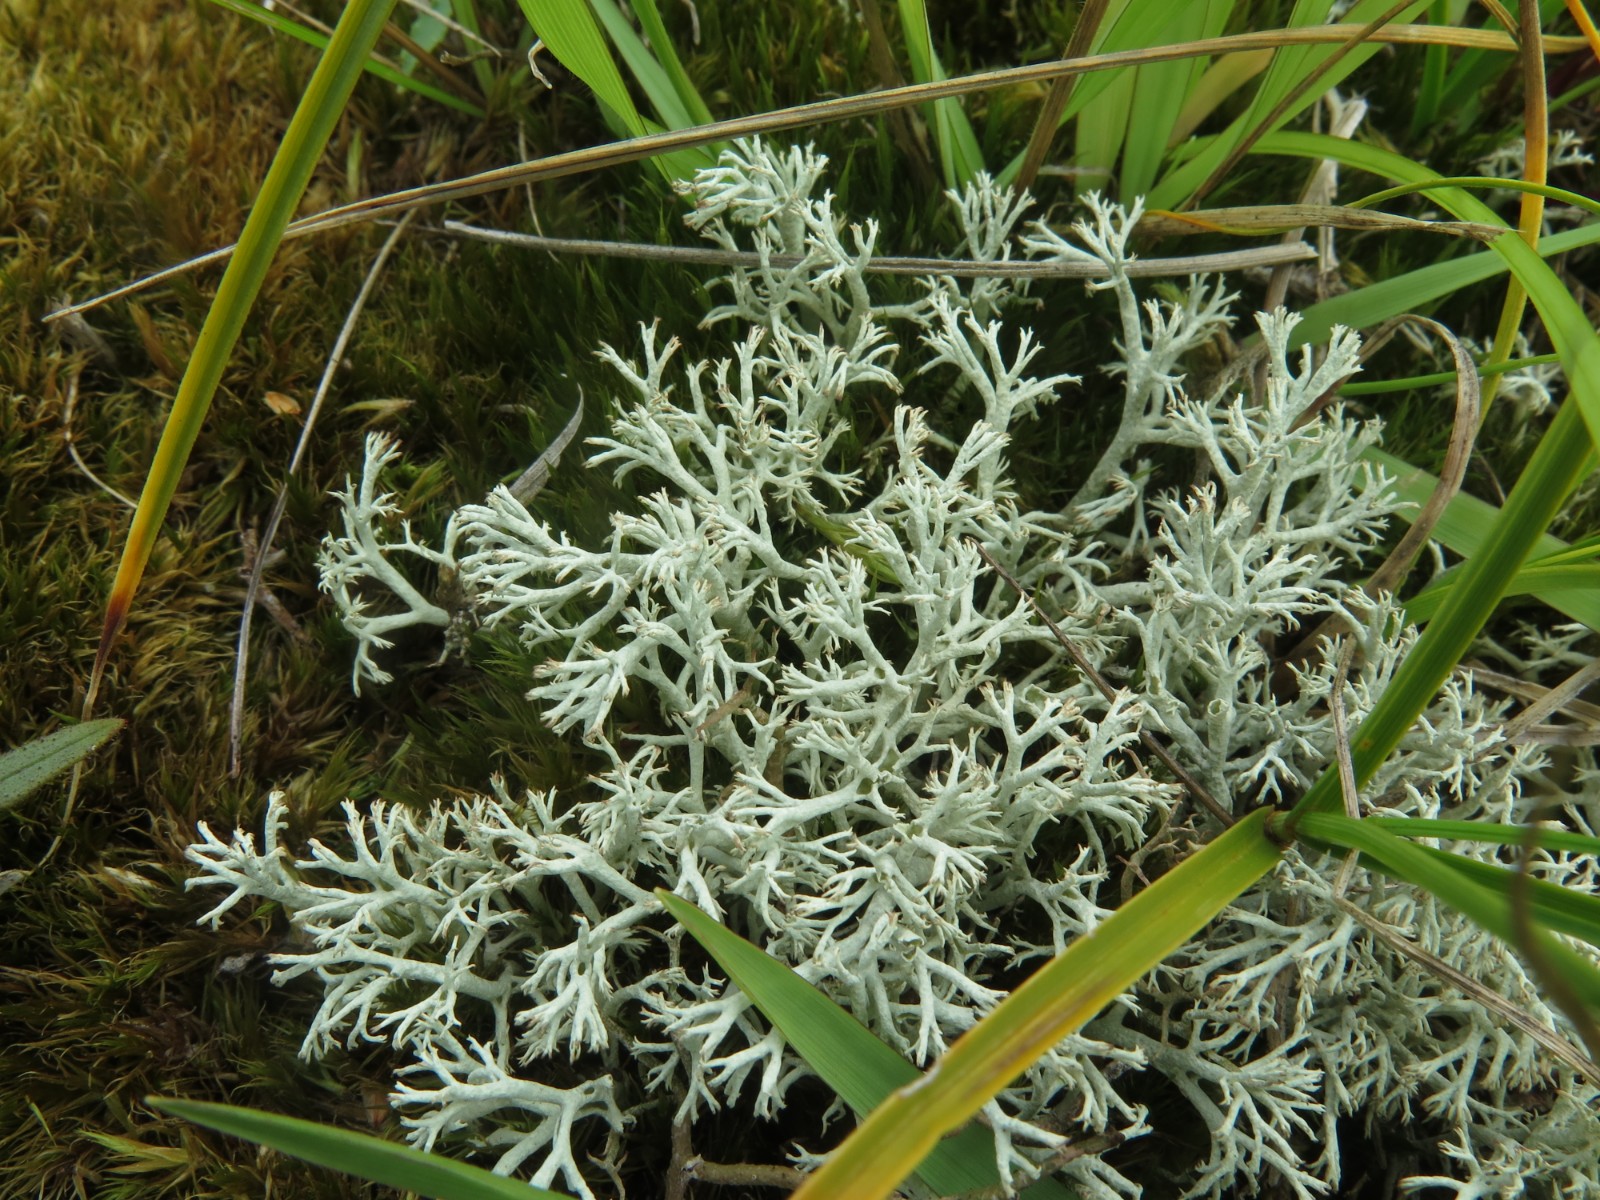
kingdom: Fungi
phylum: Ascomycota
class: Lecanoromycetes
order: Lecanorales
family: Cladoniaceae
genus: Cladonia
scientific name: Cladonia portentosa
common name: hede-rensdyrlav
